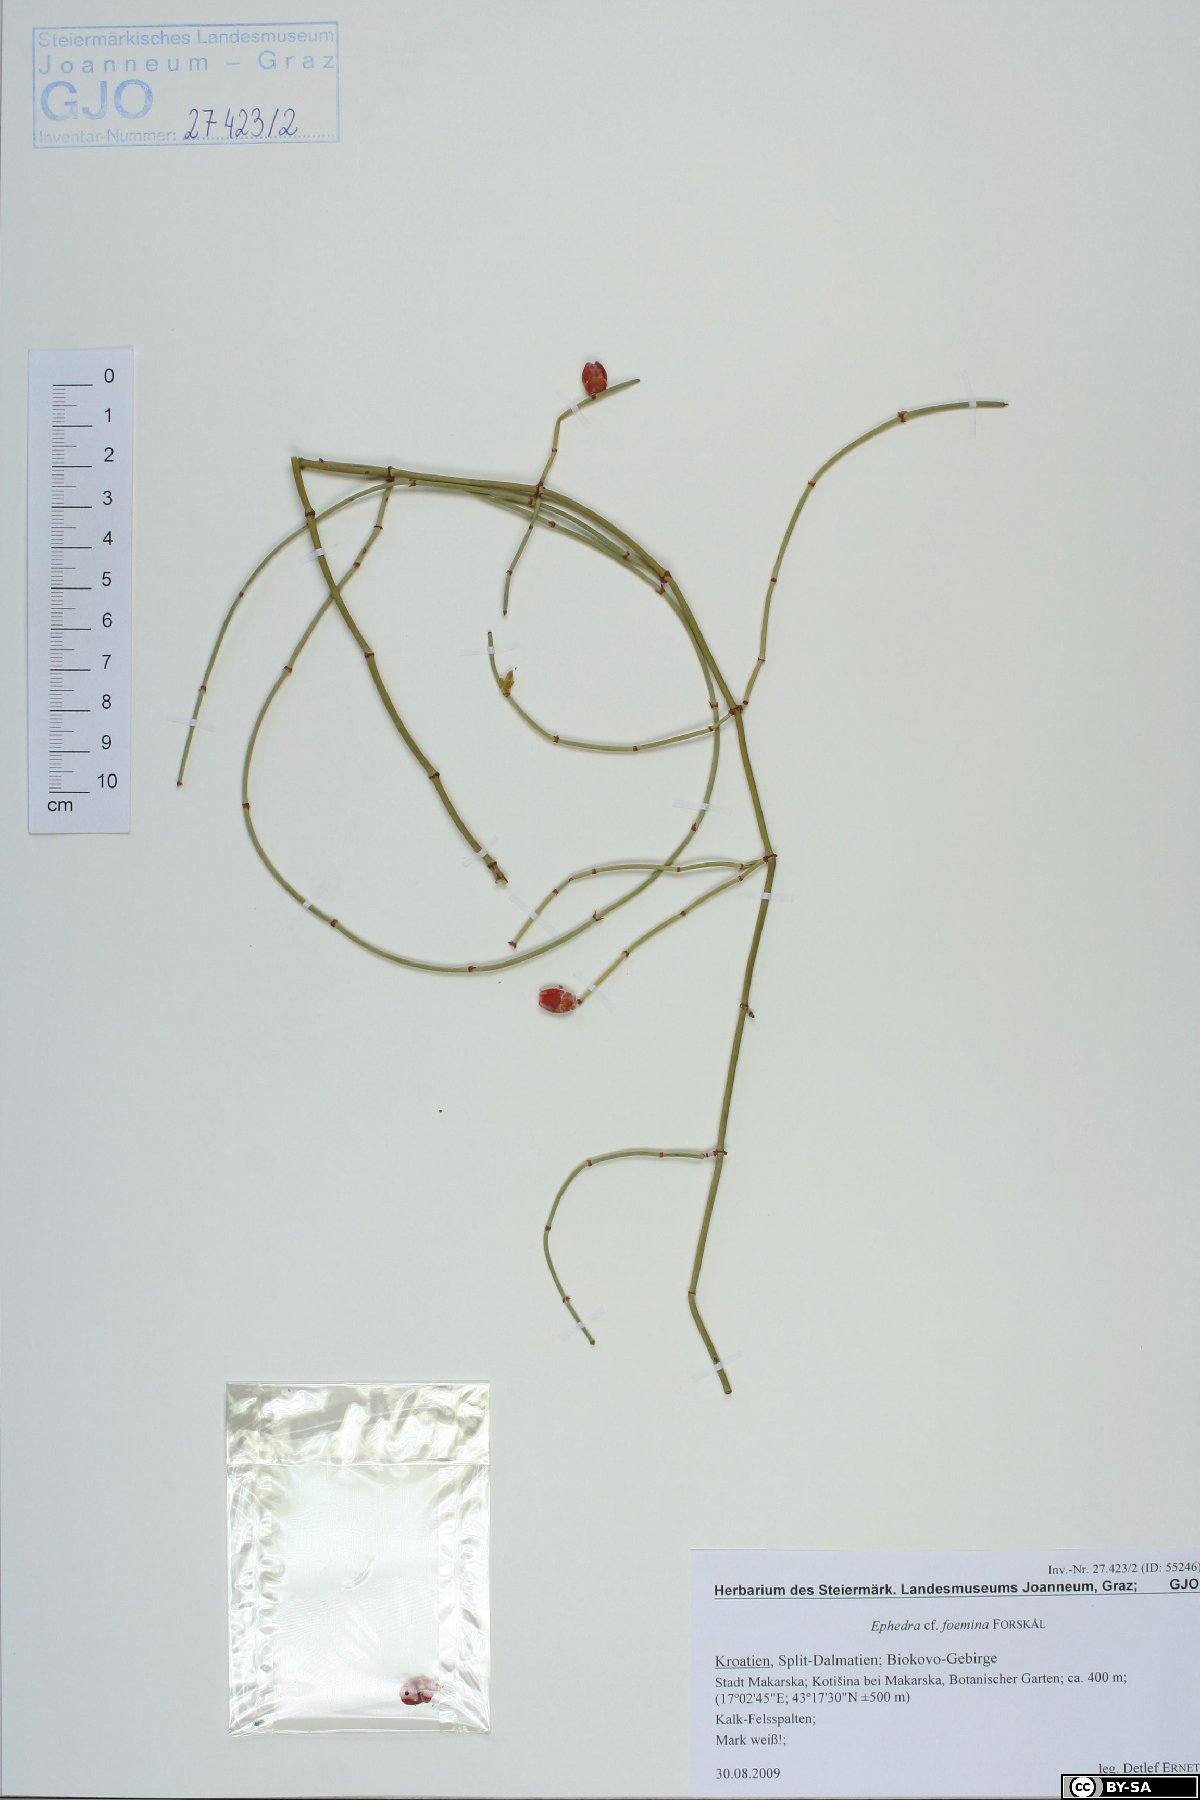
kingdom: Plantae
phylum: Tracheophyta
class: Gnetopsida
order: Ephedrales
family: Ephedraceae
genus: Ephedra
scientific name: Ephedra foeminea
